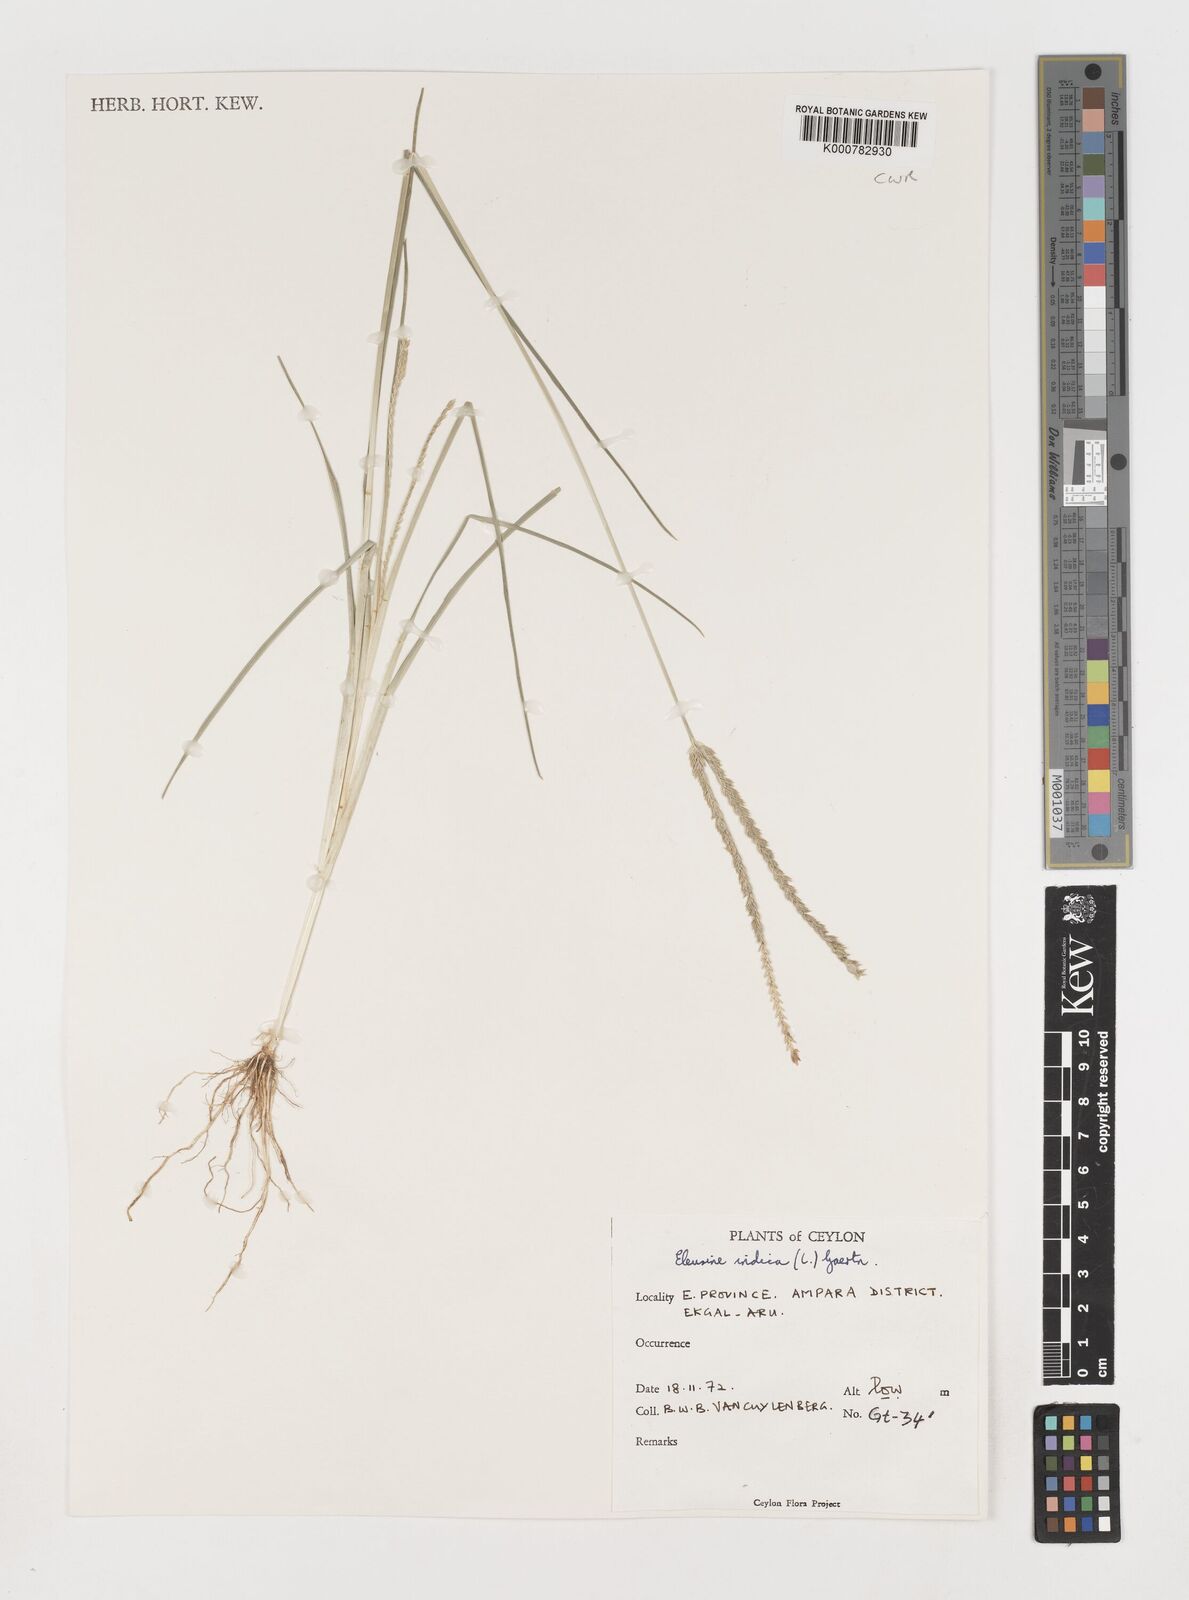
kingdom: Plantae
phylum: Tracheophyta
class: Liliopsida
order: Poales
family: Poaceae
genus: Eleusine
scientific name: Eleusine indica
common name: Yard-grass
